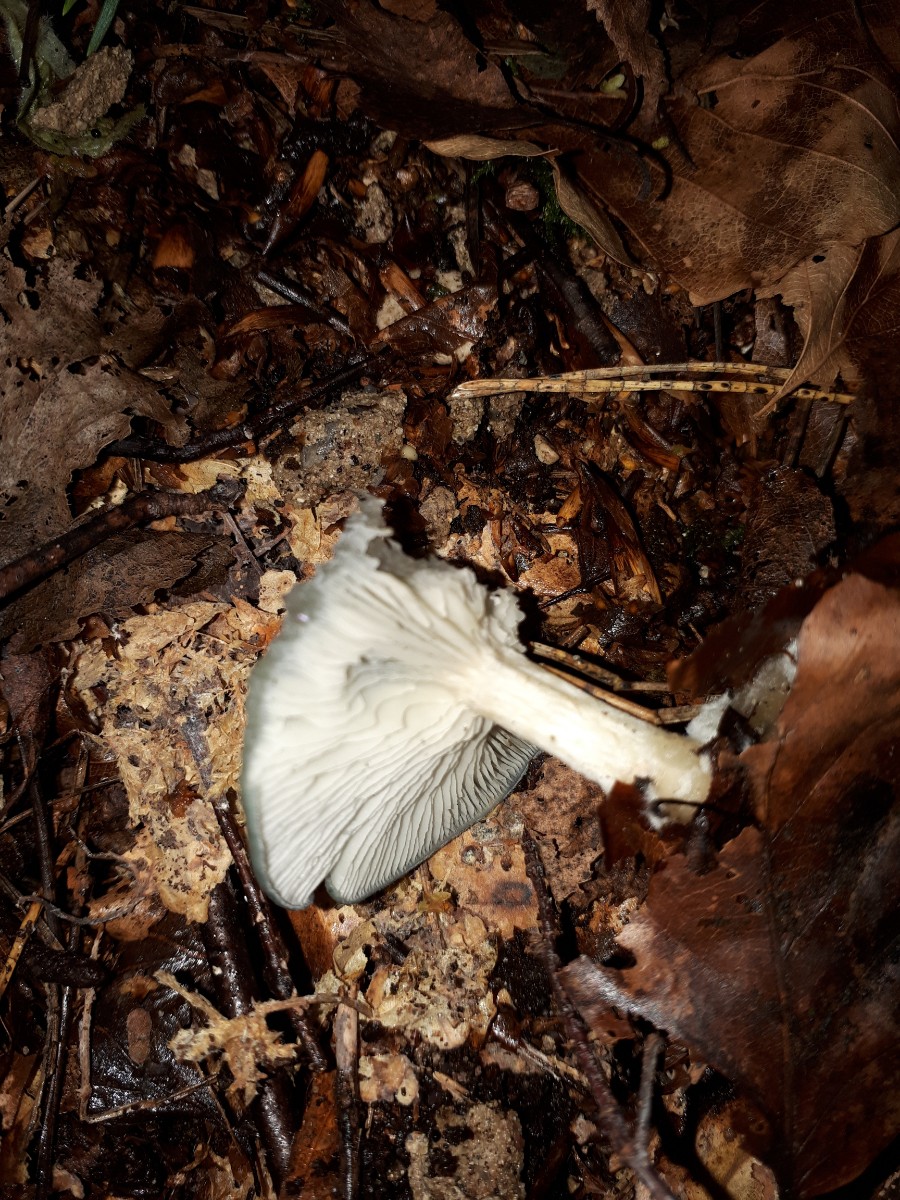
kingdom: Fungi
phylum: Basidiomycota
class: Agaricomycetes
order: Agaricales
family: Tricholomataceae
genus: Clitocybe
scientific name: Clitocybe odora
